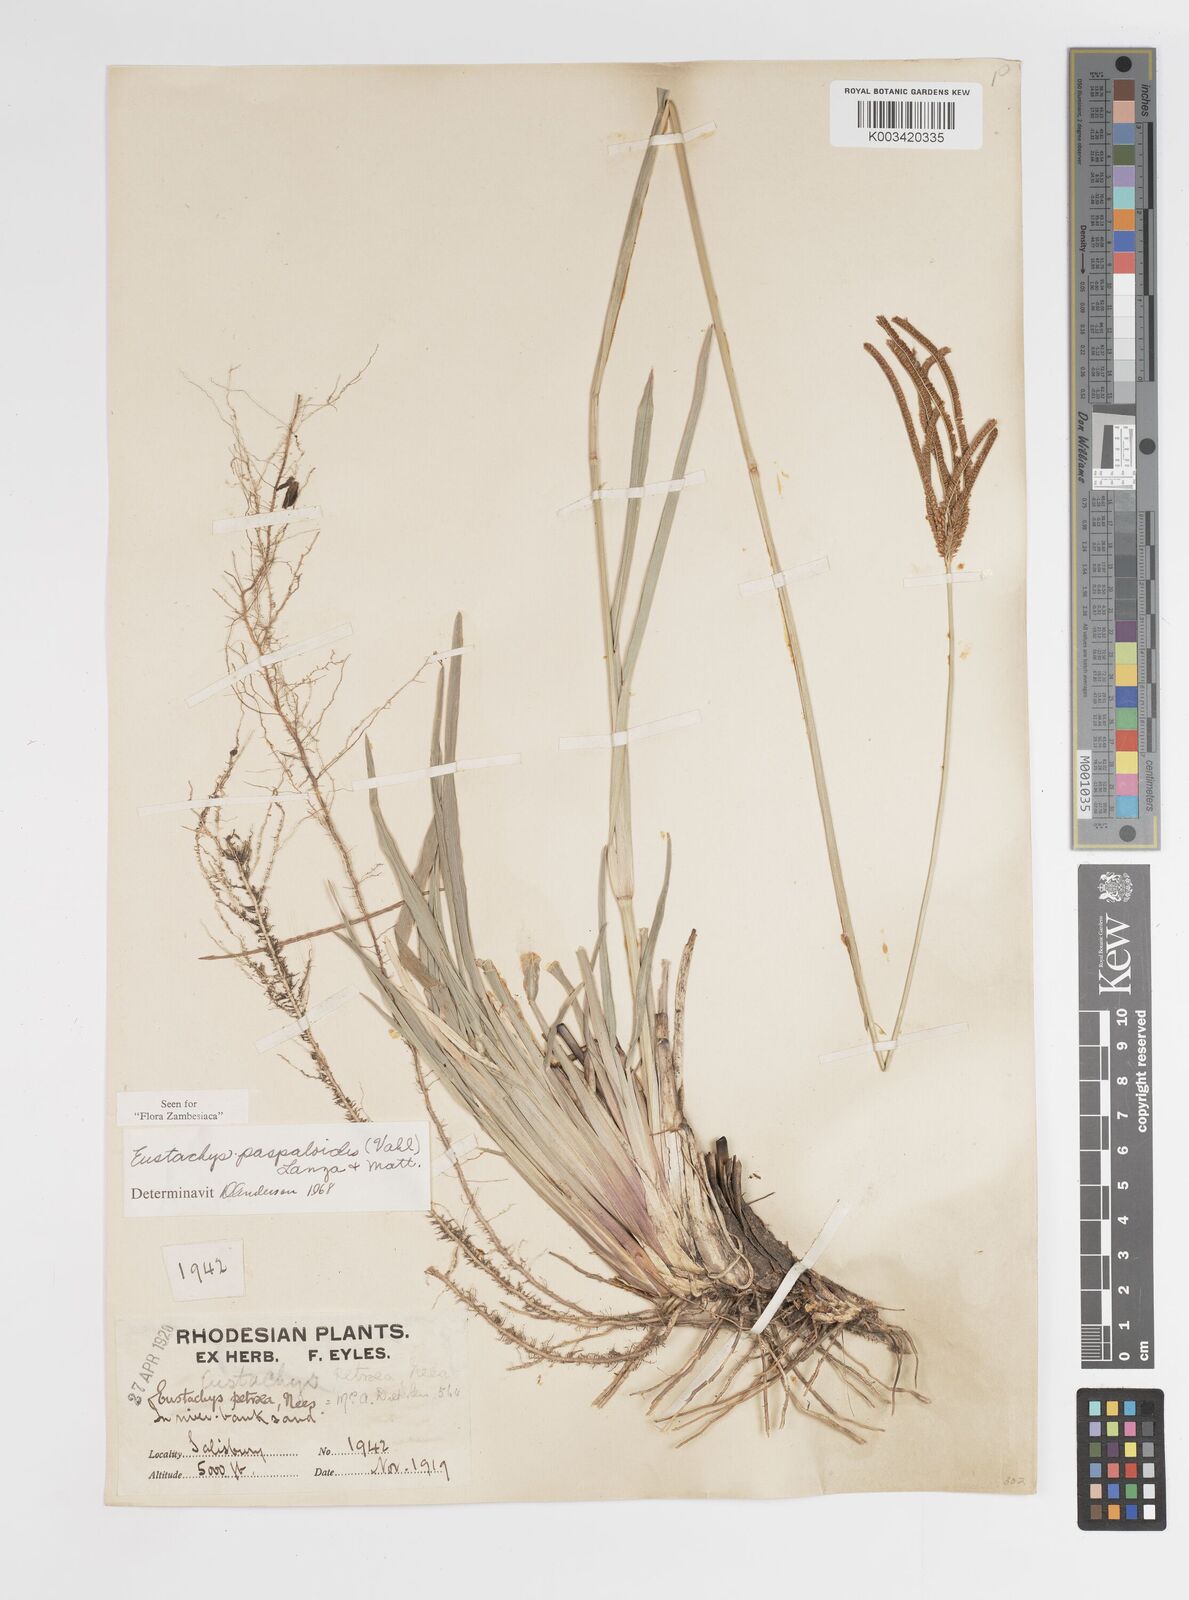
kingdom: Plantae
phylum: Tracheophyta
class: Liliopsida
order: Poales
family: Poaceae
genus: Eustachys
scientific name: Eustachys paspaloides
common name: Caribbean fingergrass
